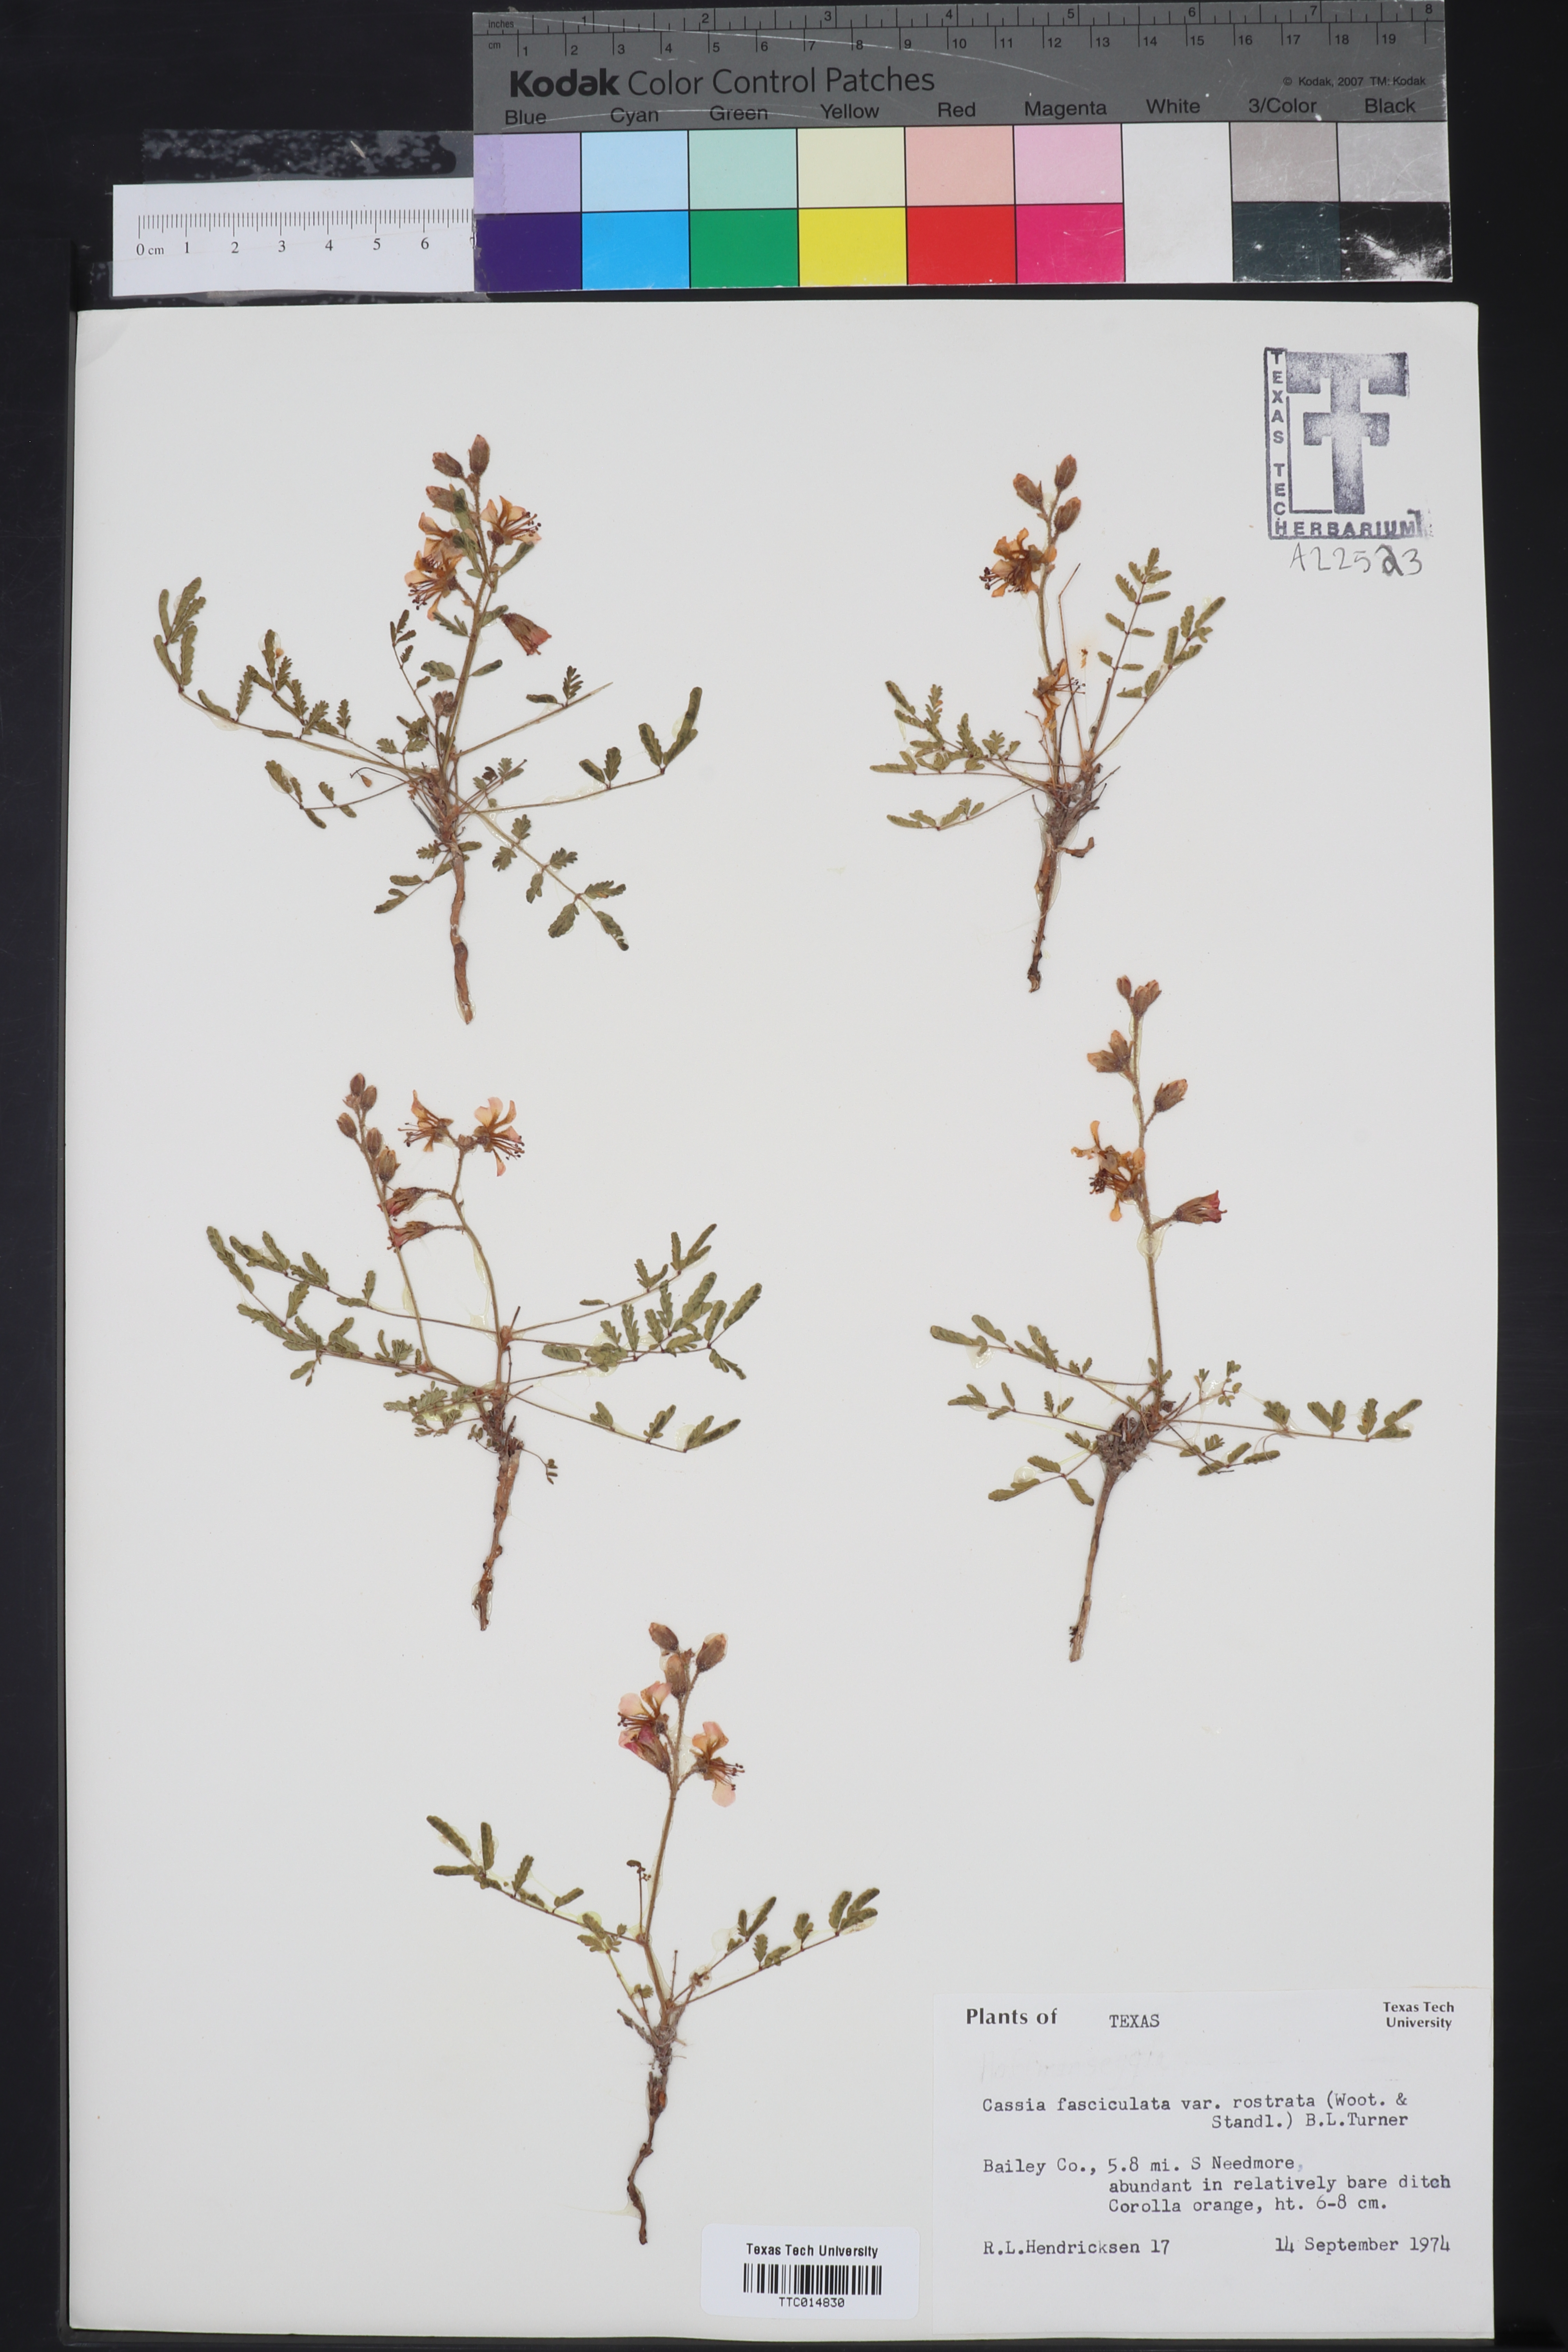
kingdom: Plantae
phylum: Tracheophyta
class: Magnoliopsida
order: Fabales
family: Fabaceae
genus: Chamaecrista
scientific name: Chamaecrista fasciculata
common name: Golden cassia
